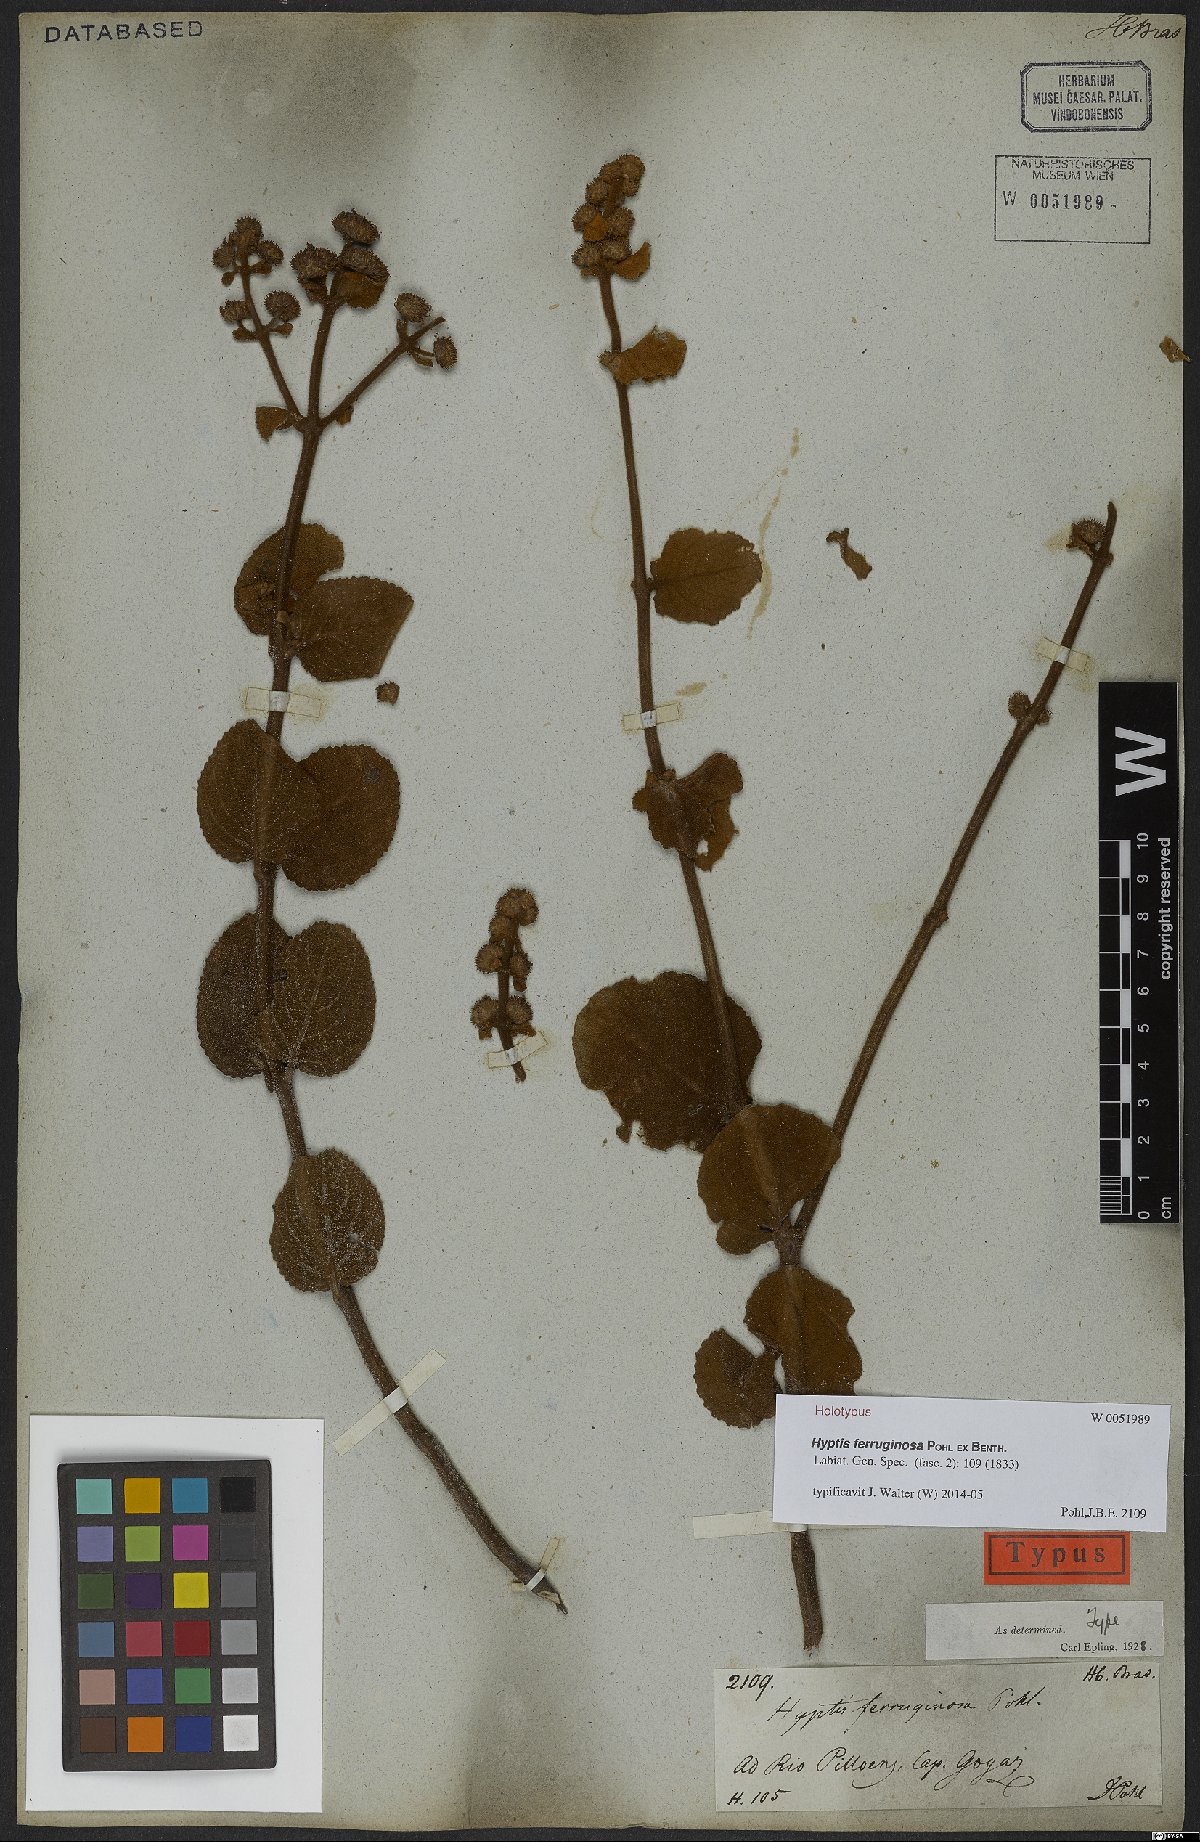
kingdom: Plantae
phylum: Tracheophyta
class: Magnoliopsida
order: Lamiales
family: Lamiaceae
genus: Hyptis
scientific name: Hyptis ferruginosa
